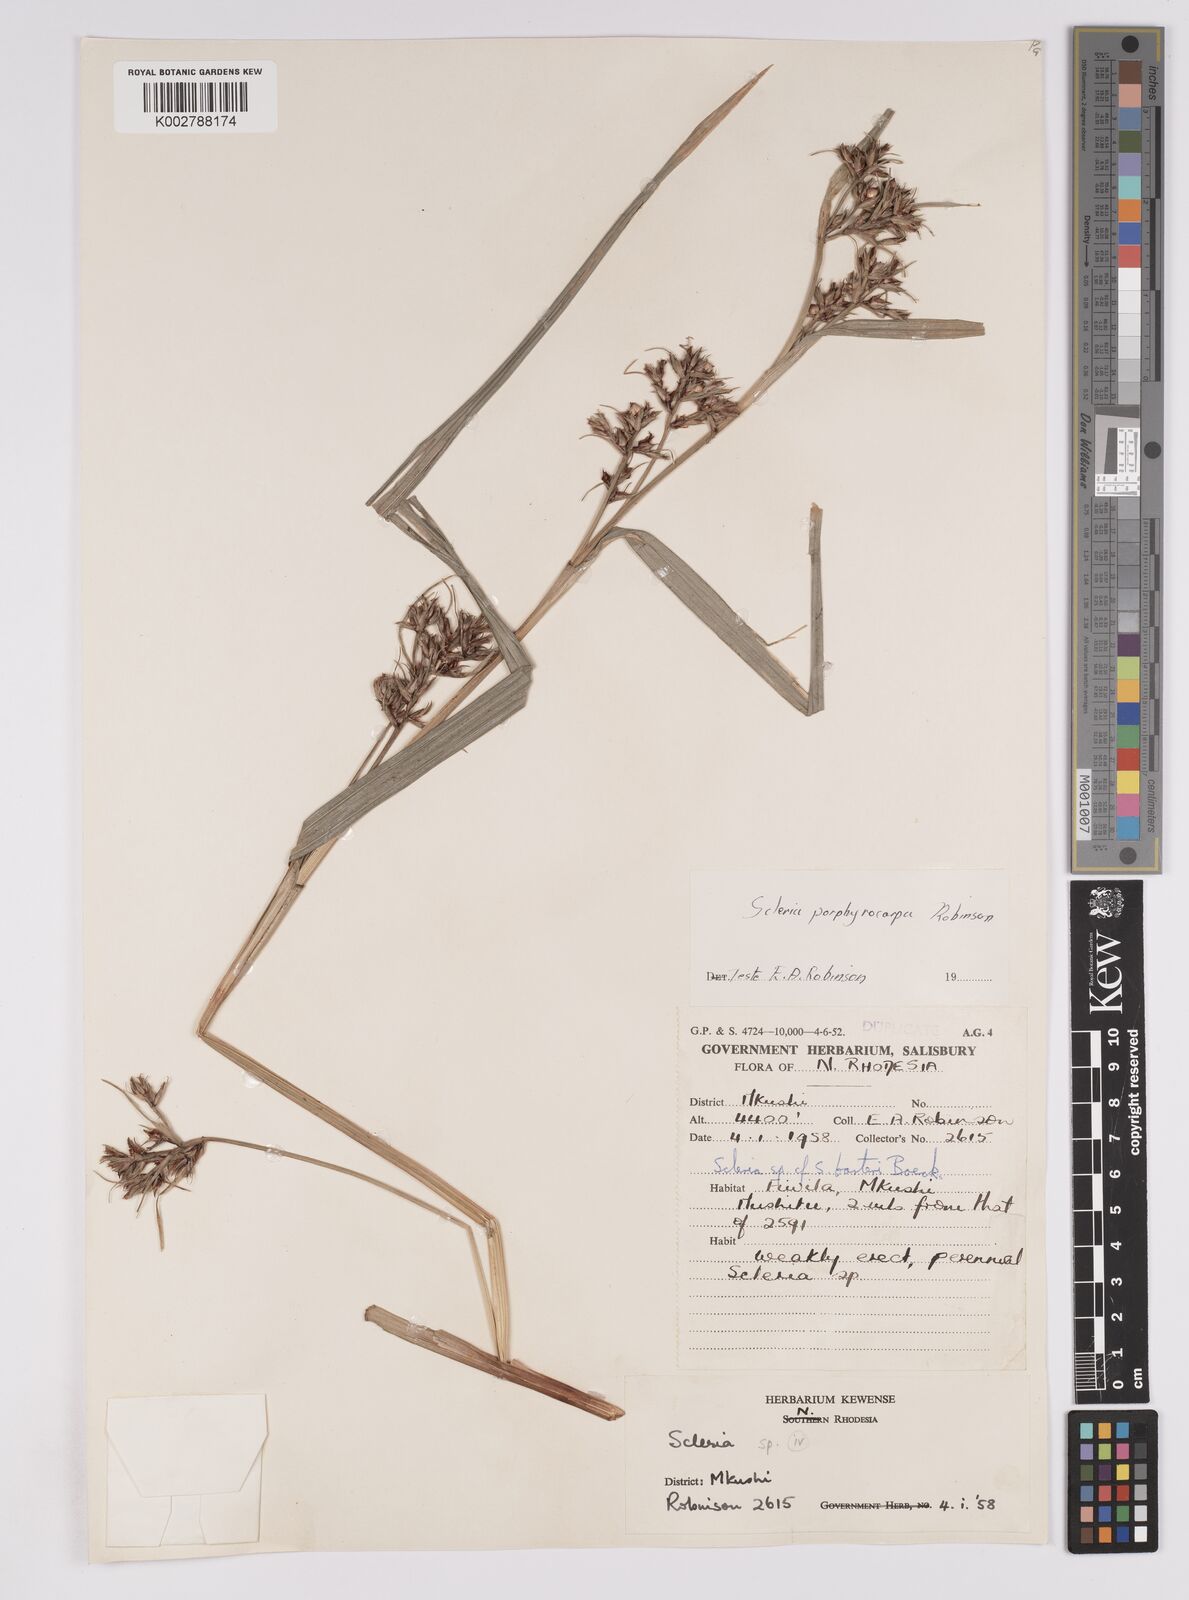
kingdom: Plantae
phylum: Tracheophyta
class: Liliopsida
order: Poales
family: Cyperaceae
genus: Scleria
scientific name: Scleria porphyrocarpa
